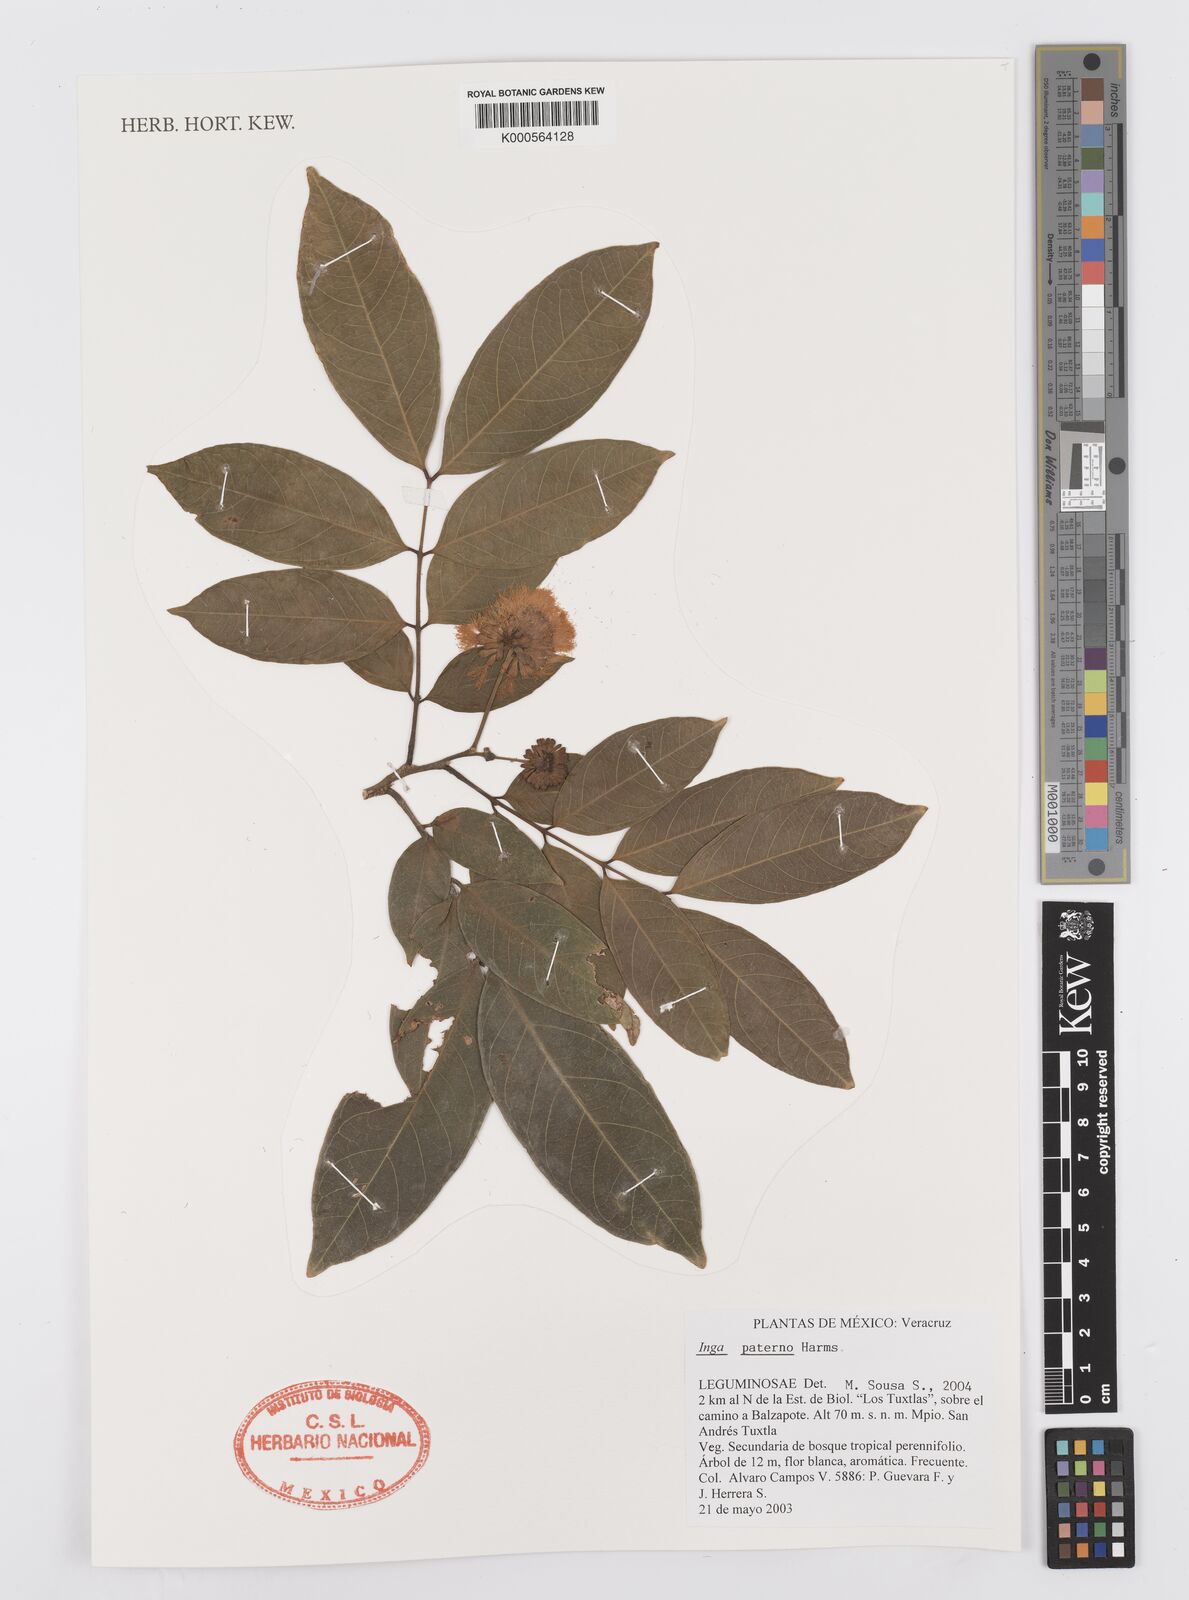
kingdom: Plantae
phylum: Tracheophyta
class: Magnoliopsida
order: Fabales
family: Fabaceae
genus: Inga
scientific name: Inga paterno
